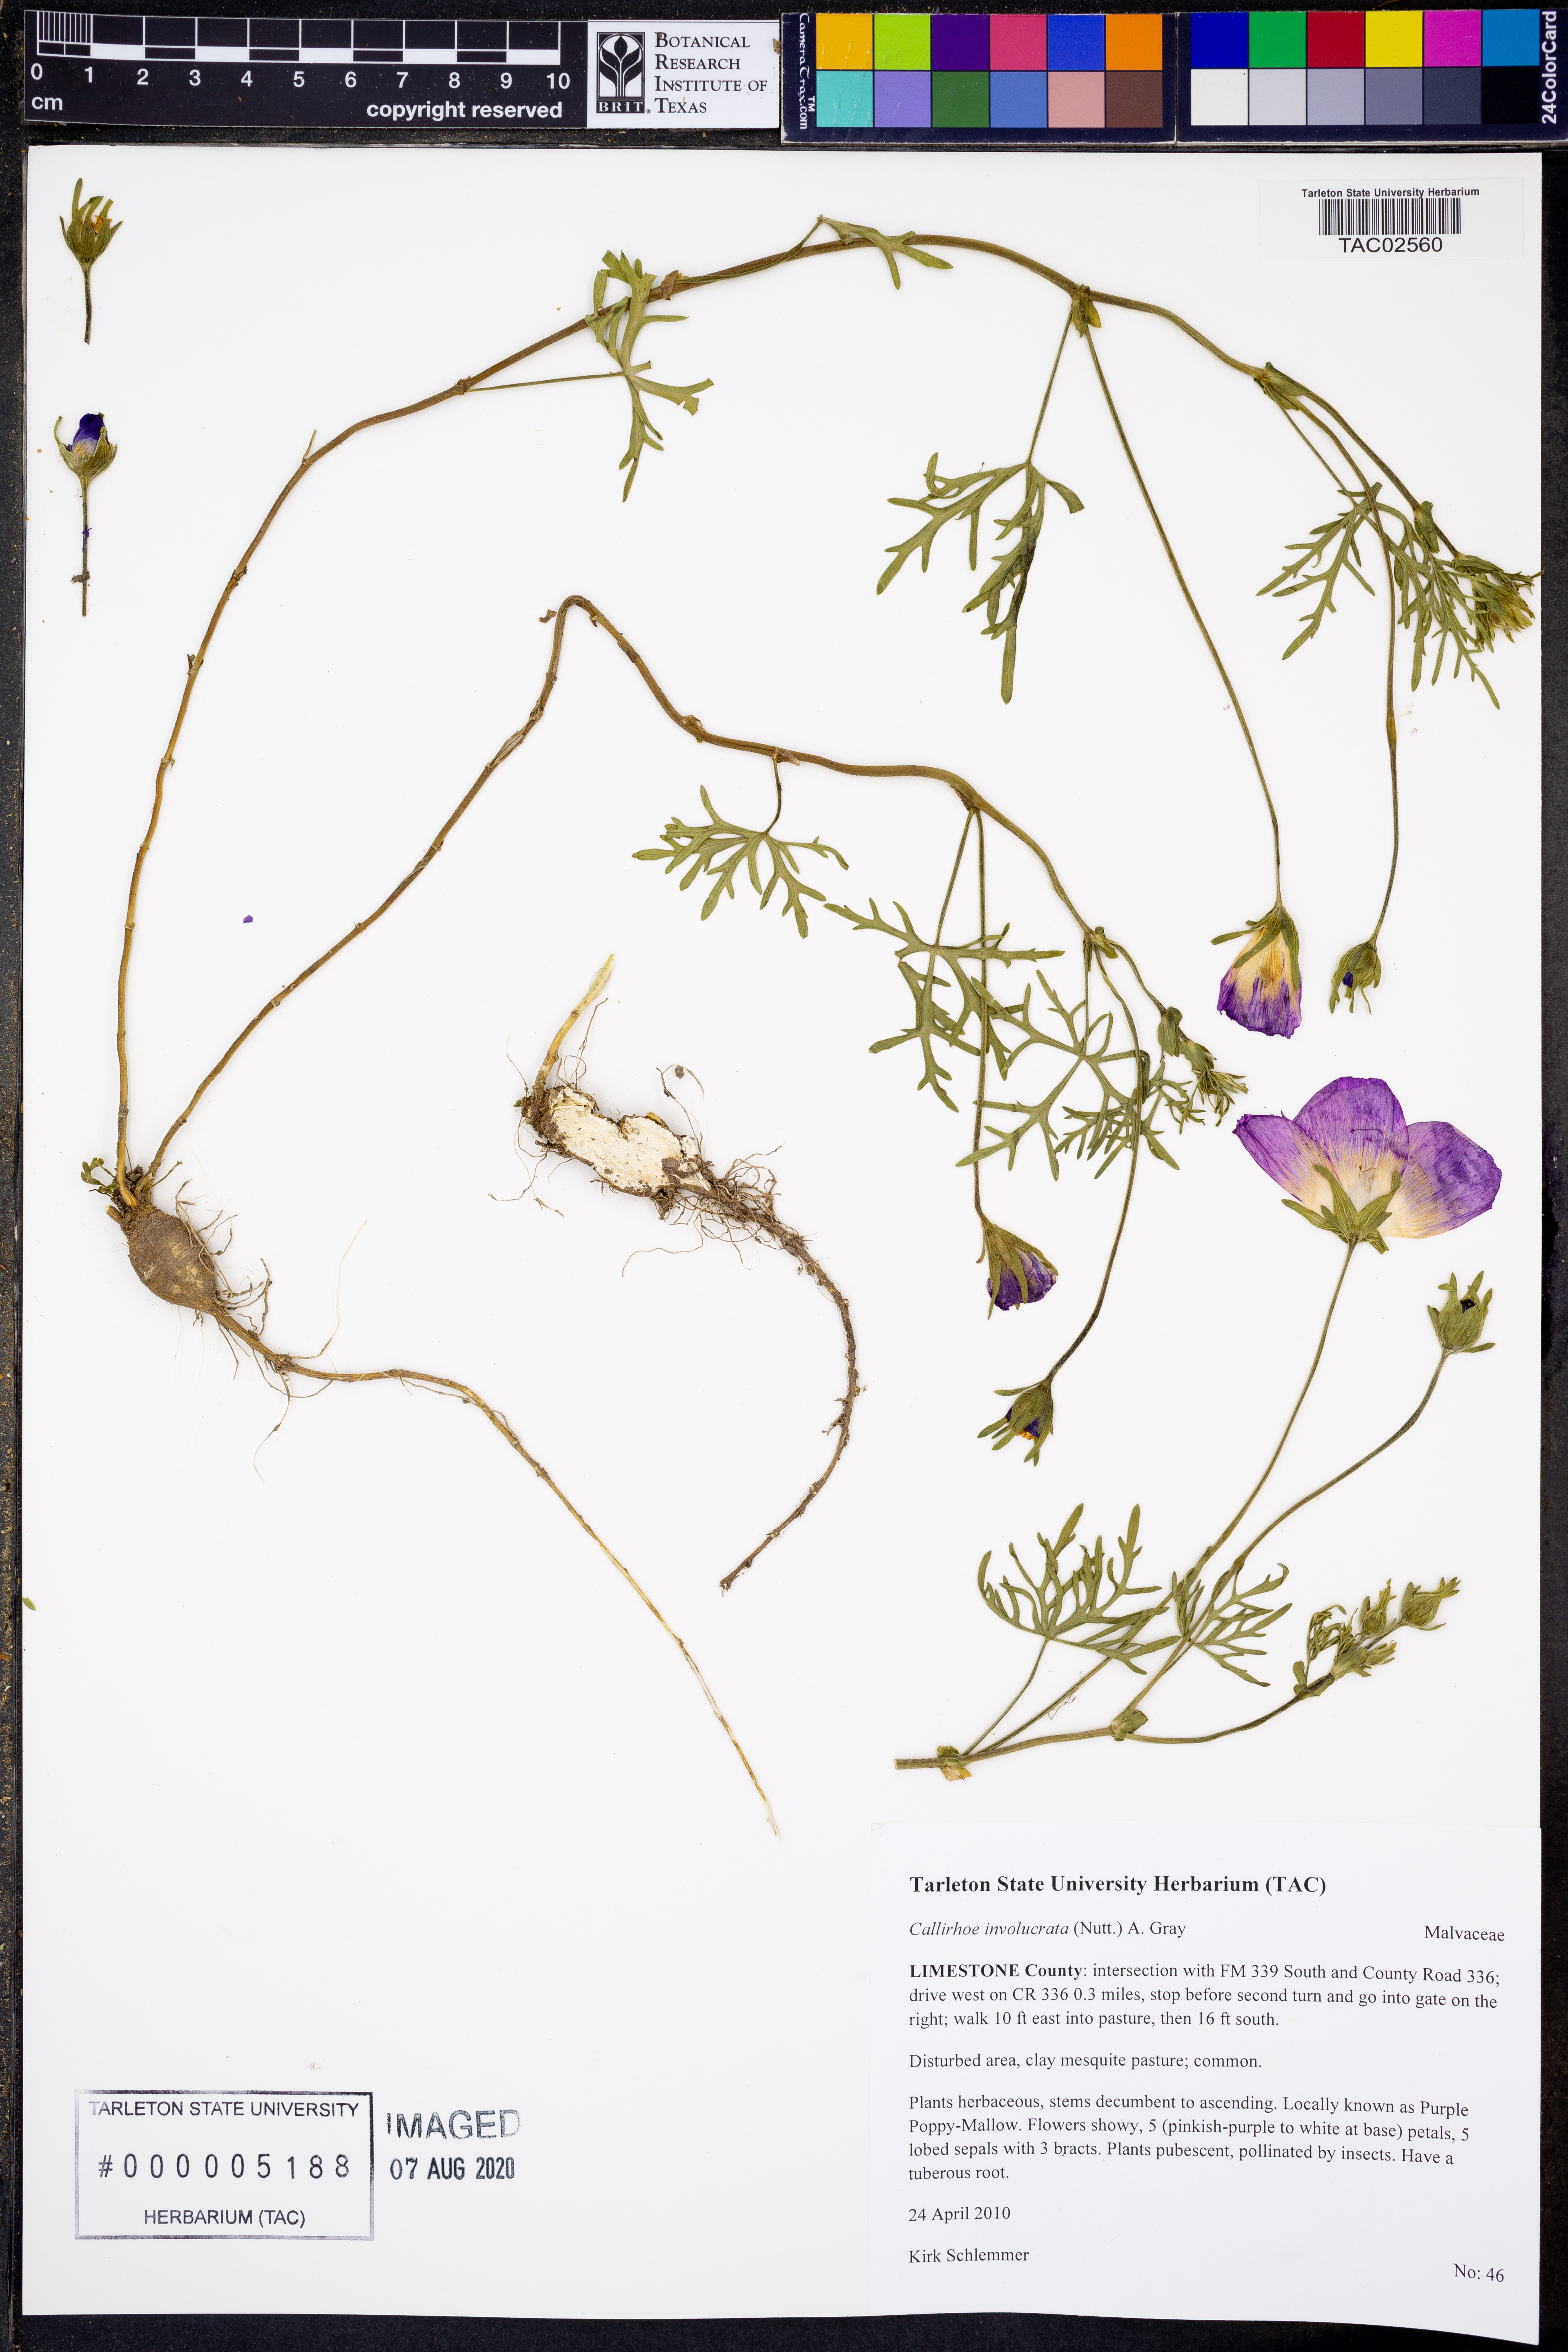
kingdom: Plantae
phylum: Tracheophyta
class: Magnoliopsida
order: Malvales
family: Malvaceae
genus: Callirhoe
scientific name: Callirhoe involucrata
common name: Purple poppy-mallow
